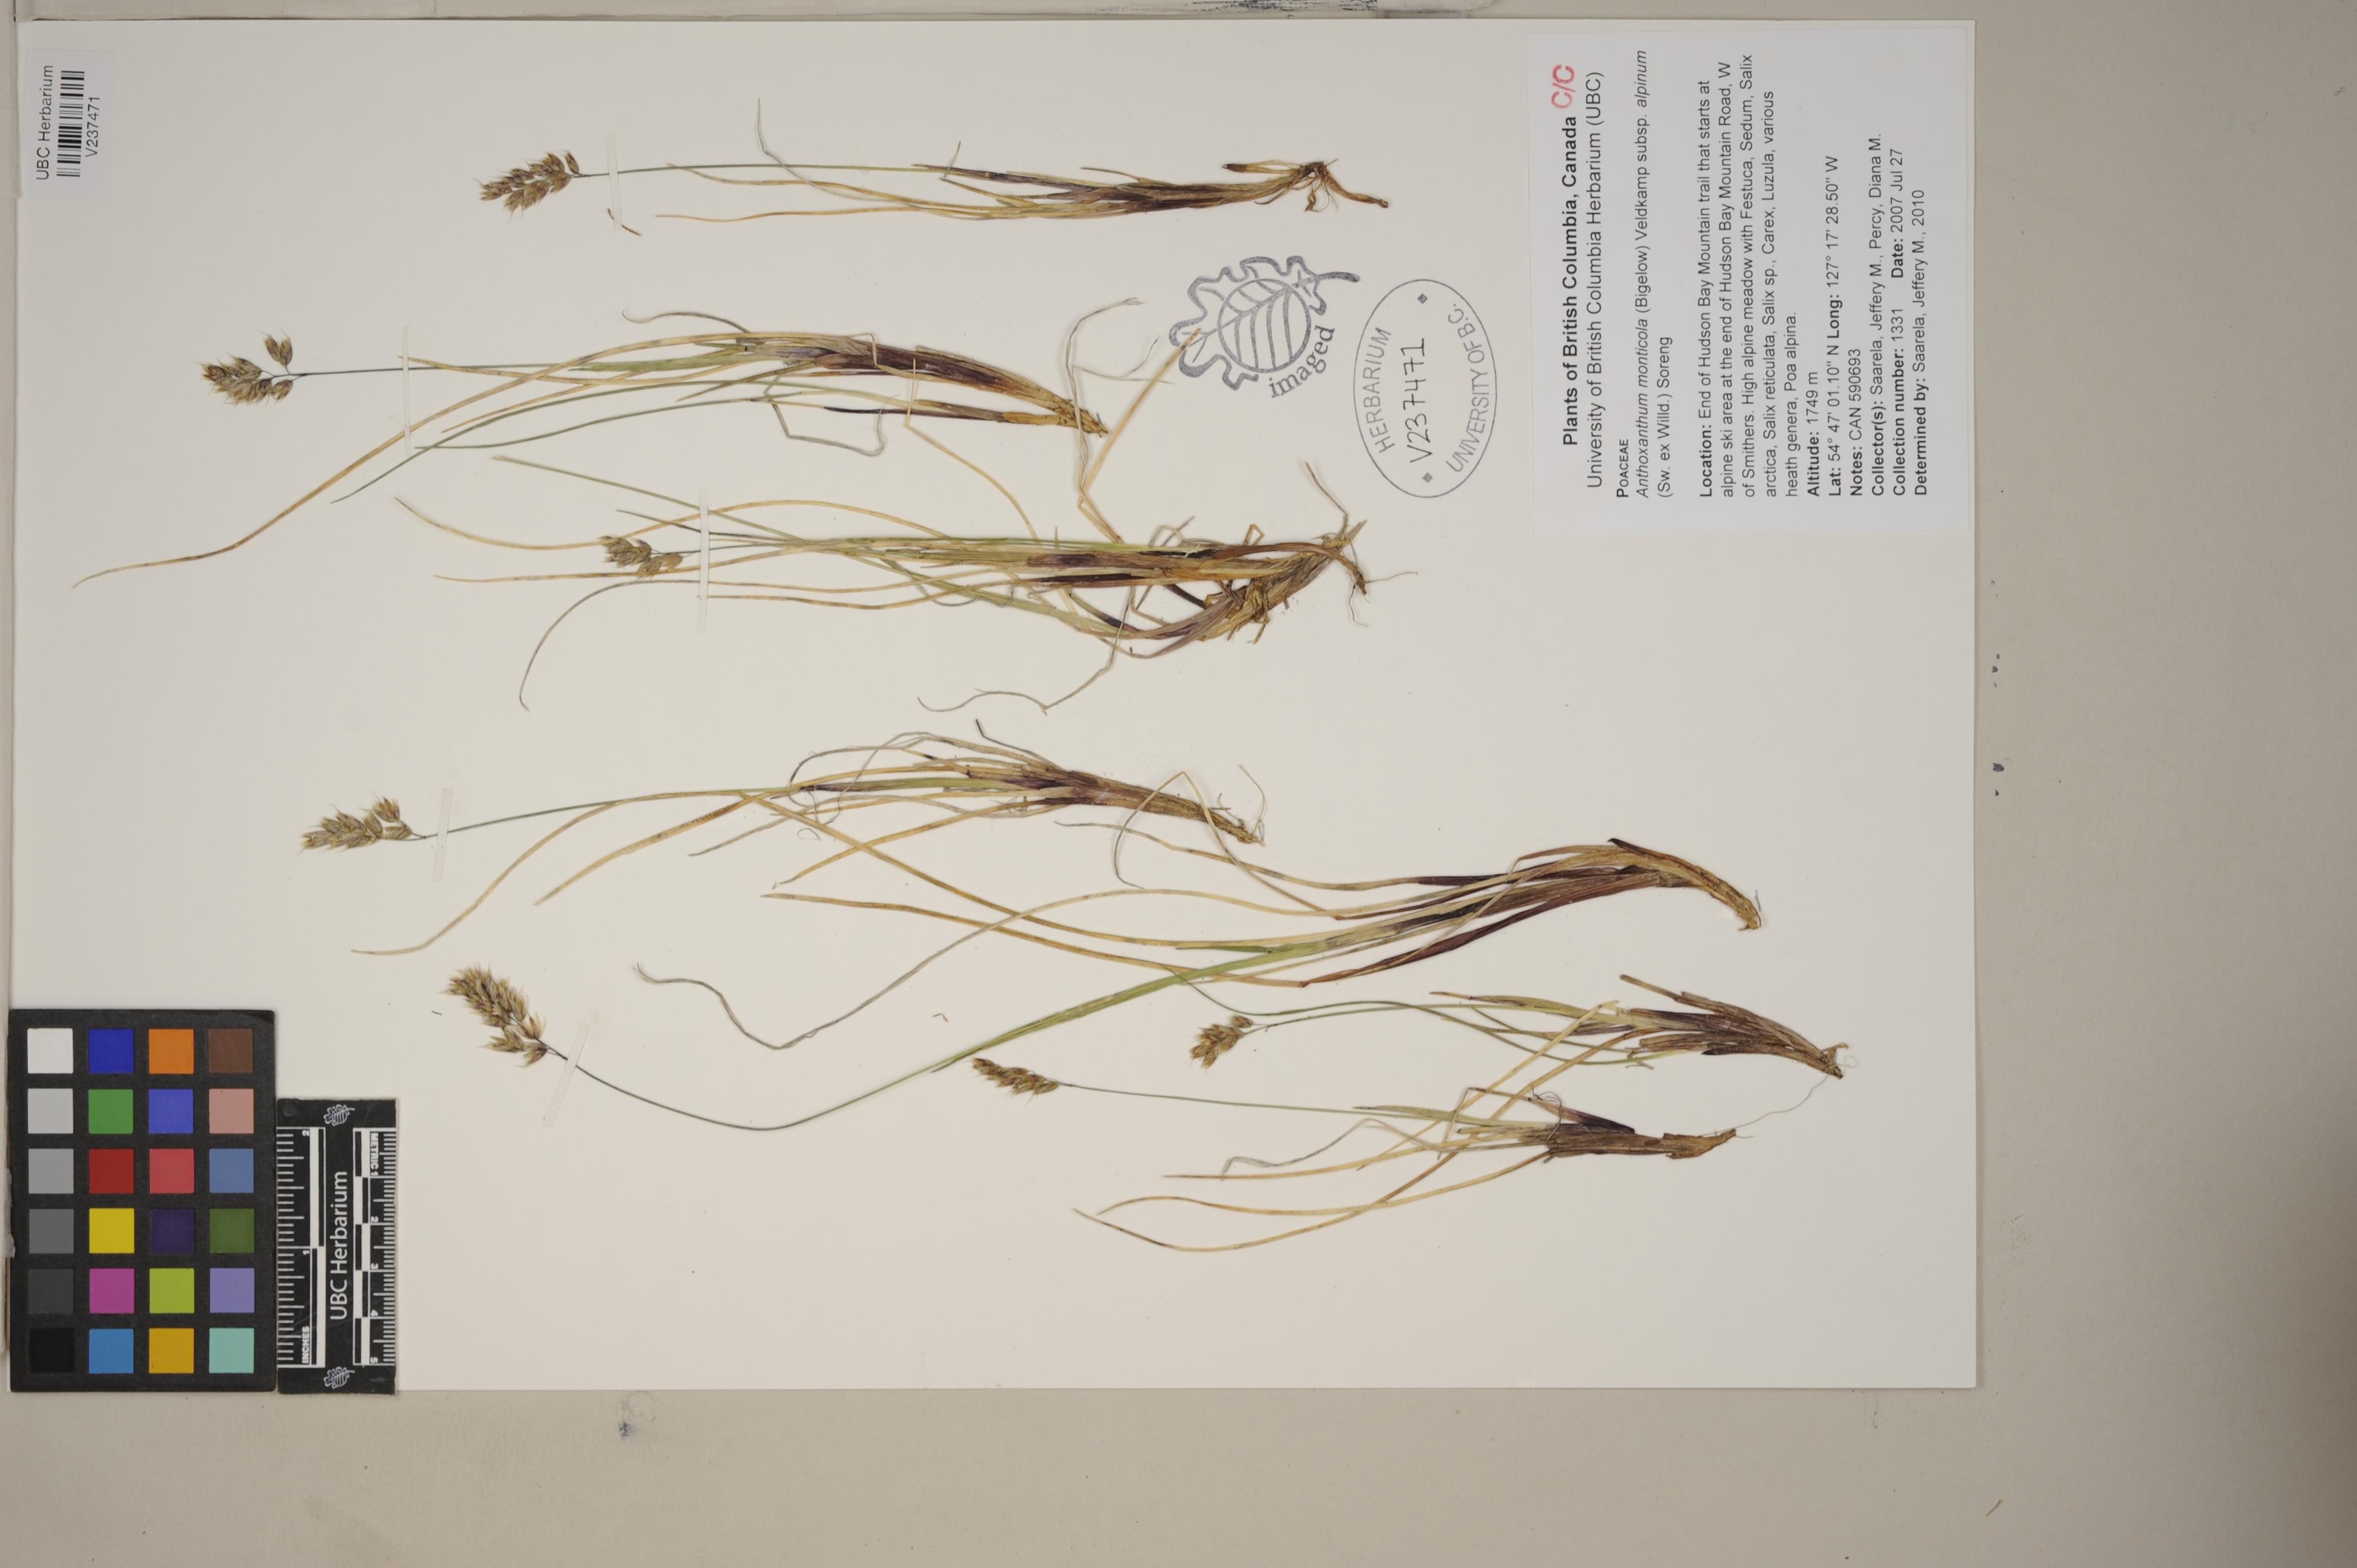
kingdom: Plantae
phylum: Tracheophyta
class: Liliopsida
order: Poales
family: Poaceae
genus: Anthoxanthum
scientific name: Anthoxanthum monticola
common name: Alpine sweetgrass
